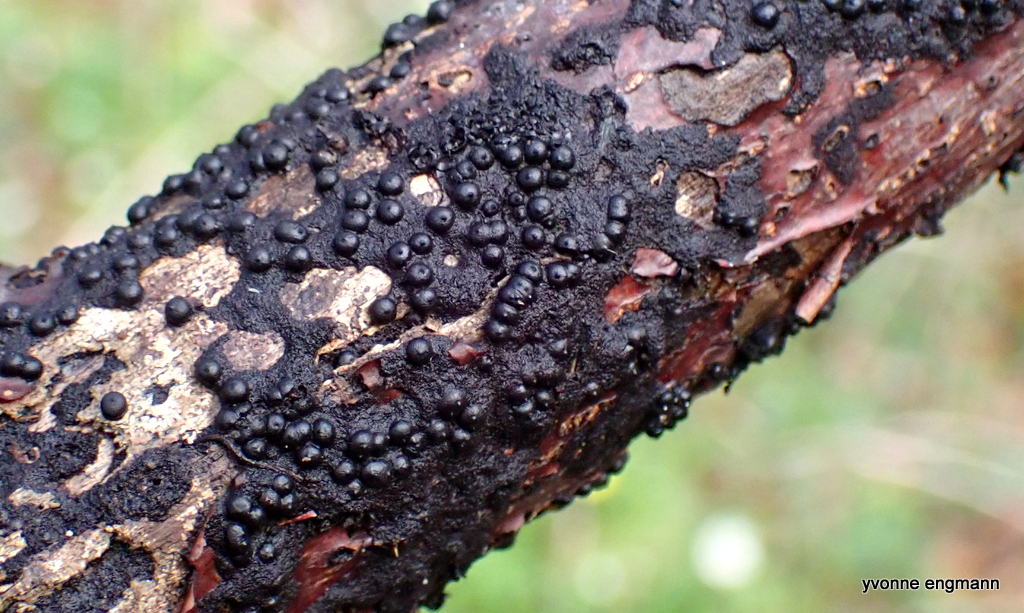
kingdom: Fungi
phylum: Ascomycota
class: Sordariomycetes
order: Xylariales
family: Xylariaceae
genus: Rosellinia
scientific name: Rosellinia
